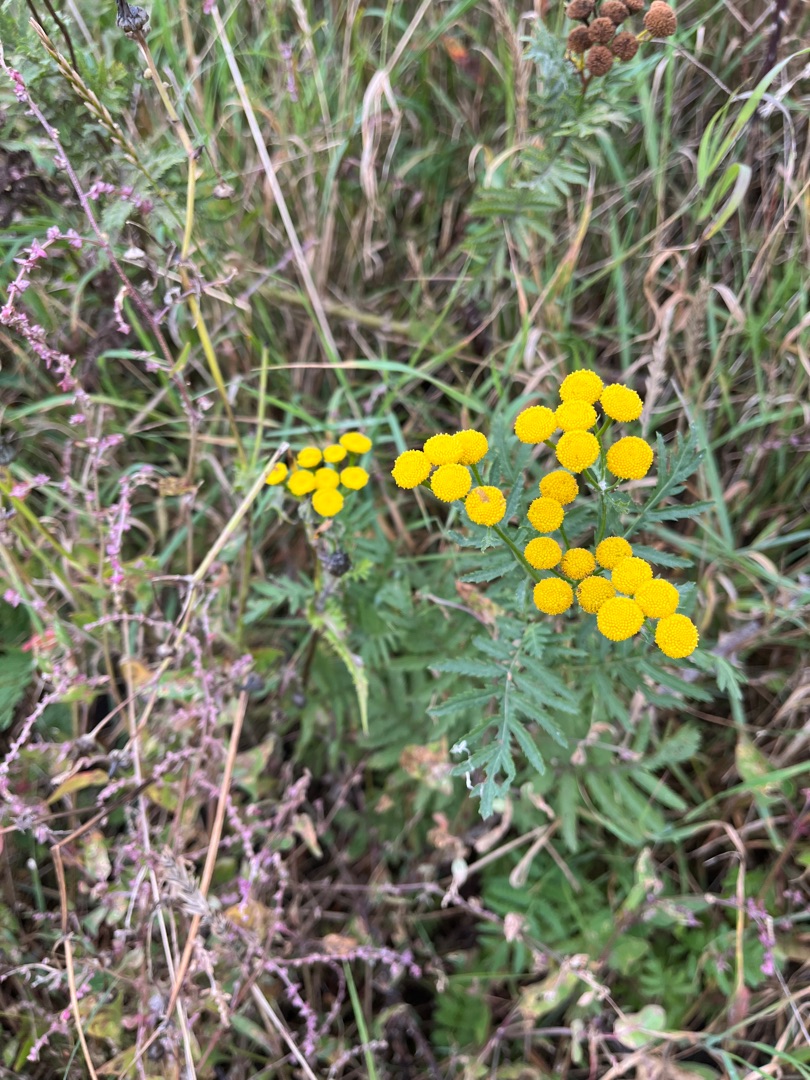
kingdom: Plantae
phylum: Tracheophyta
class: Magnoliopsida
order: Asterales
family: Asteraceae
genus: Tanacetum
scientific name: Tanacetum vulgare
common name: Rejnfan
